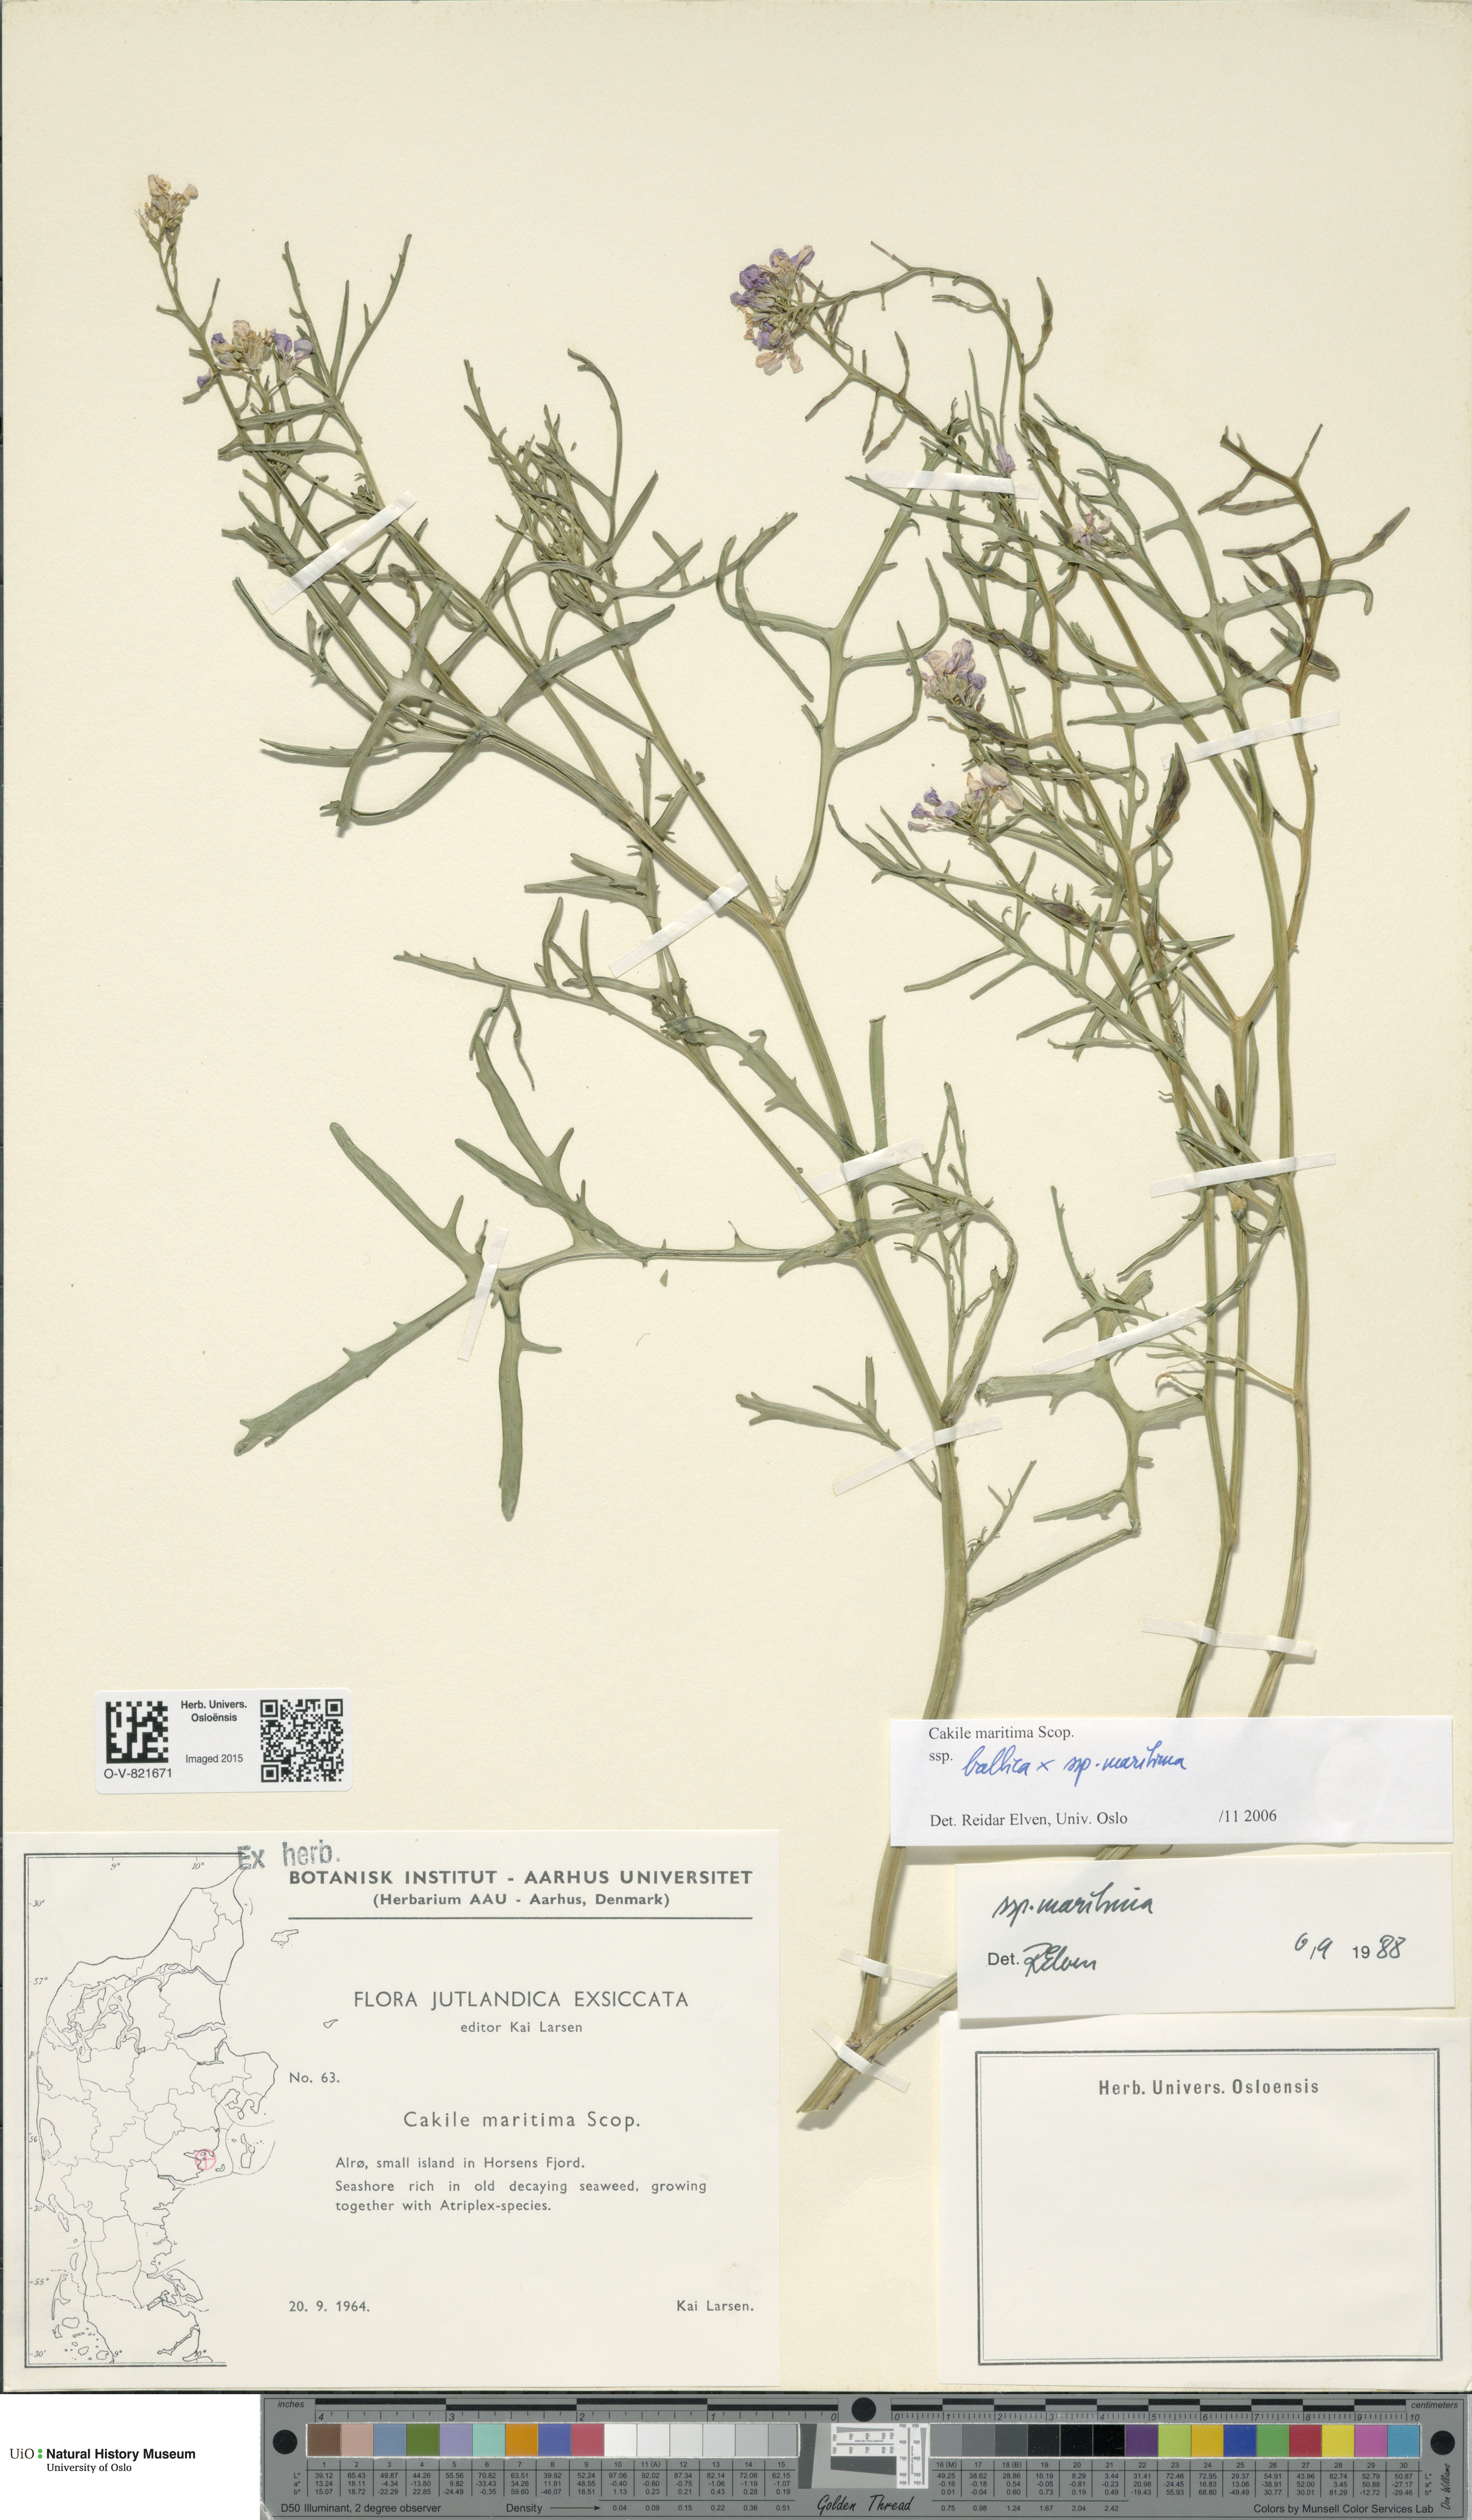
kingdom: Plantae
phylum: Tracheophyta
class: Magnoliopsida
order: Brassicales
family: Brassicaceae
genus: Cakile
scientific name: Cakile
